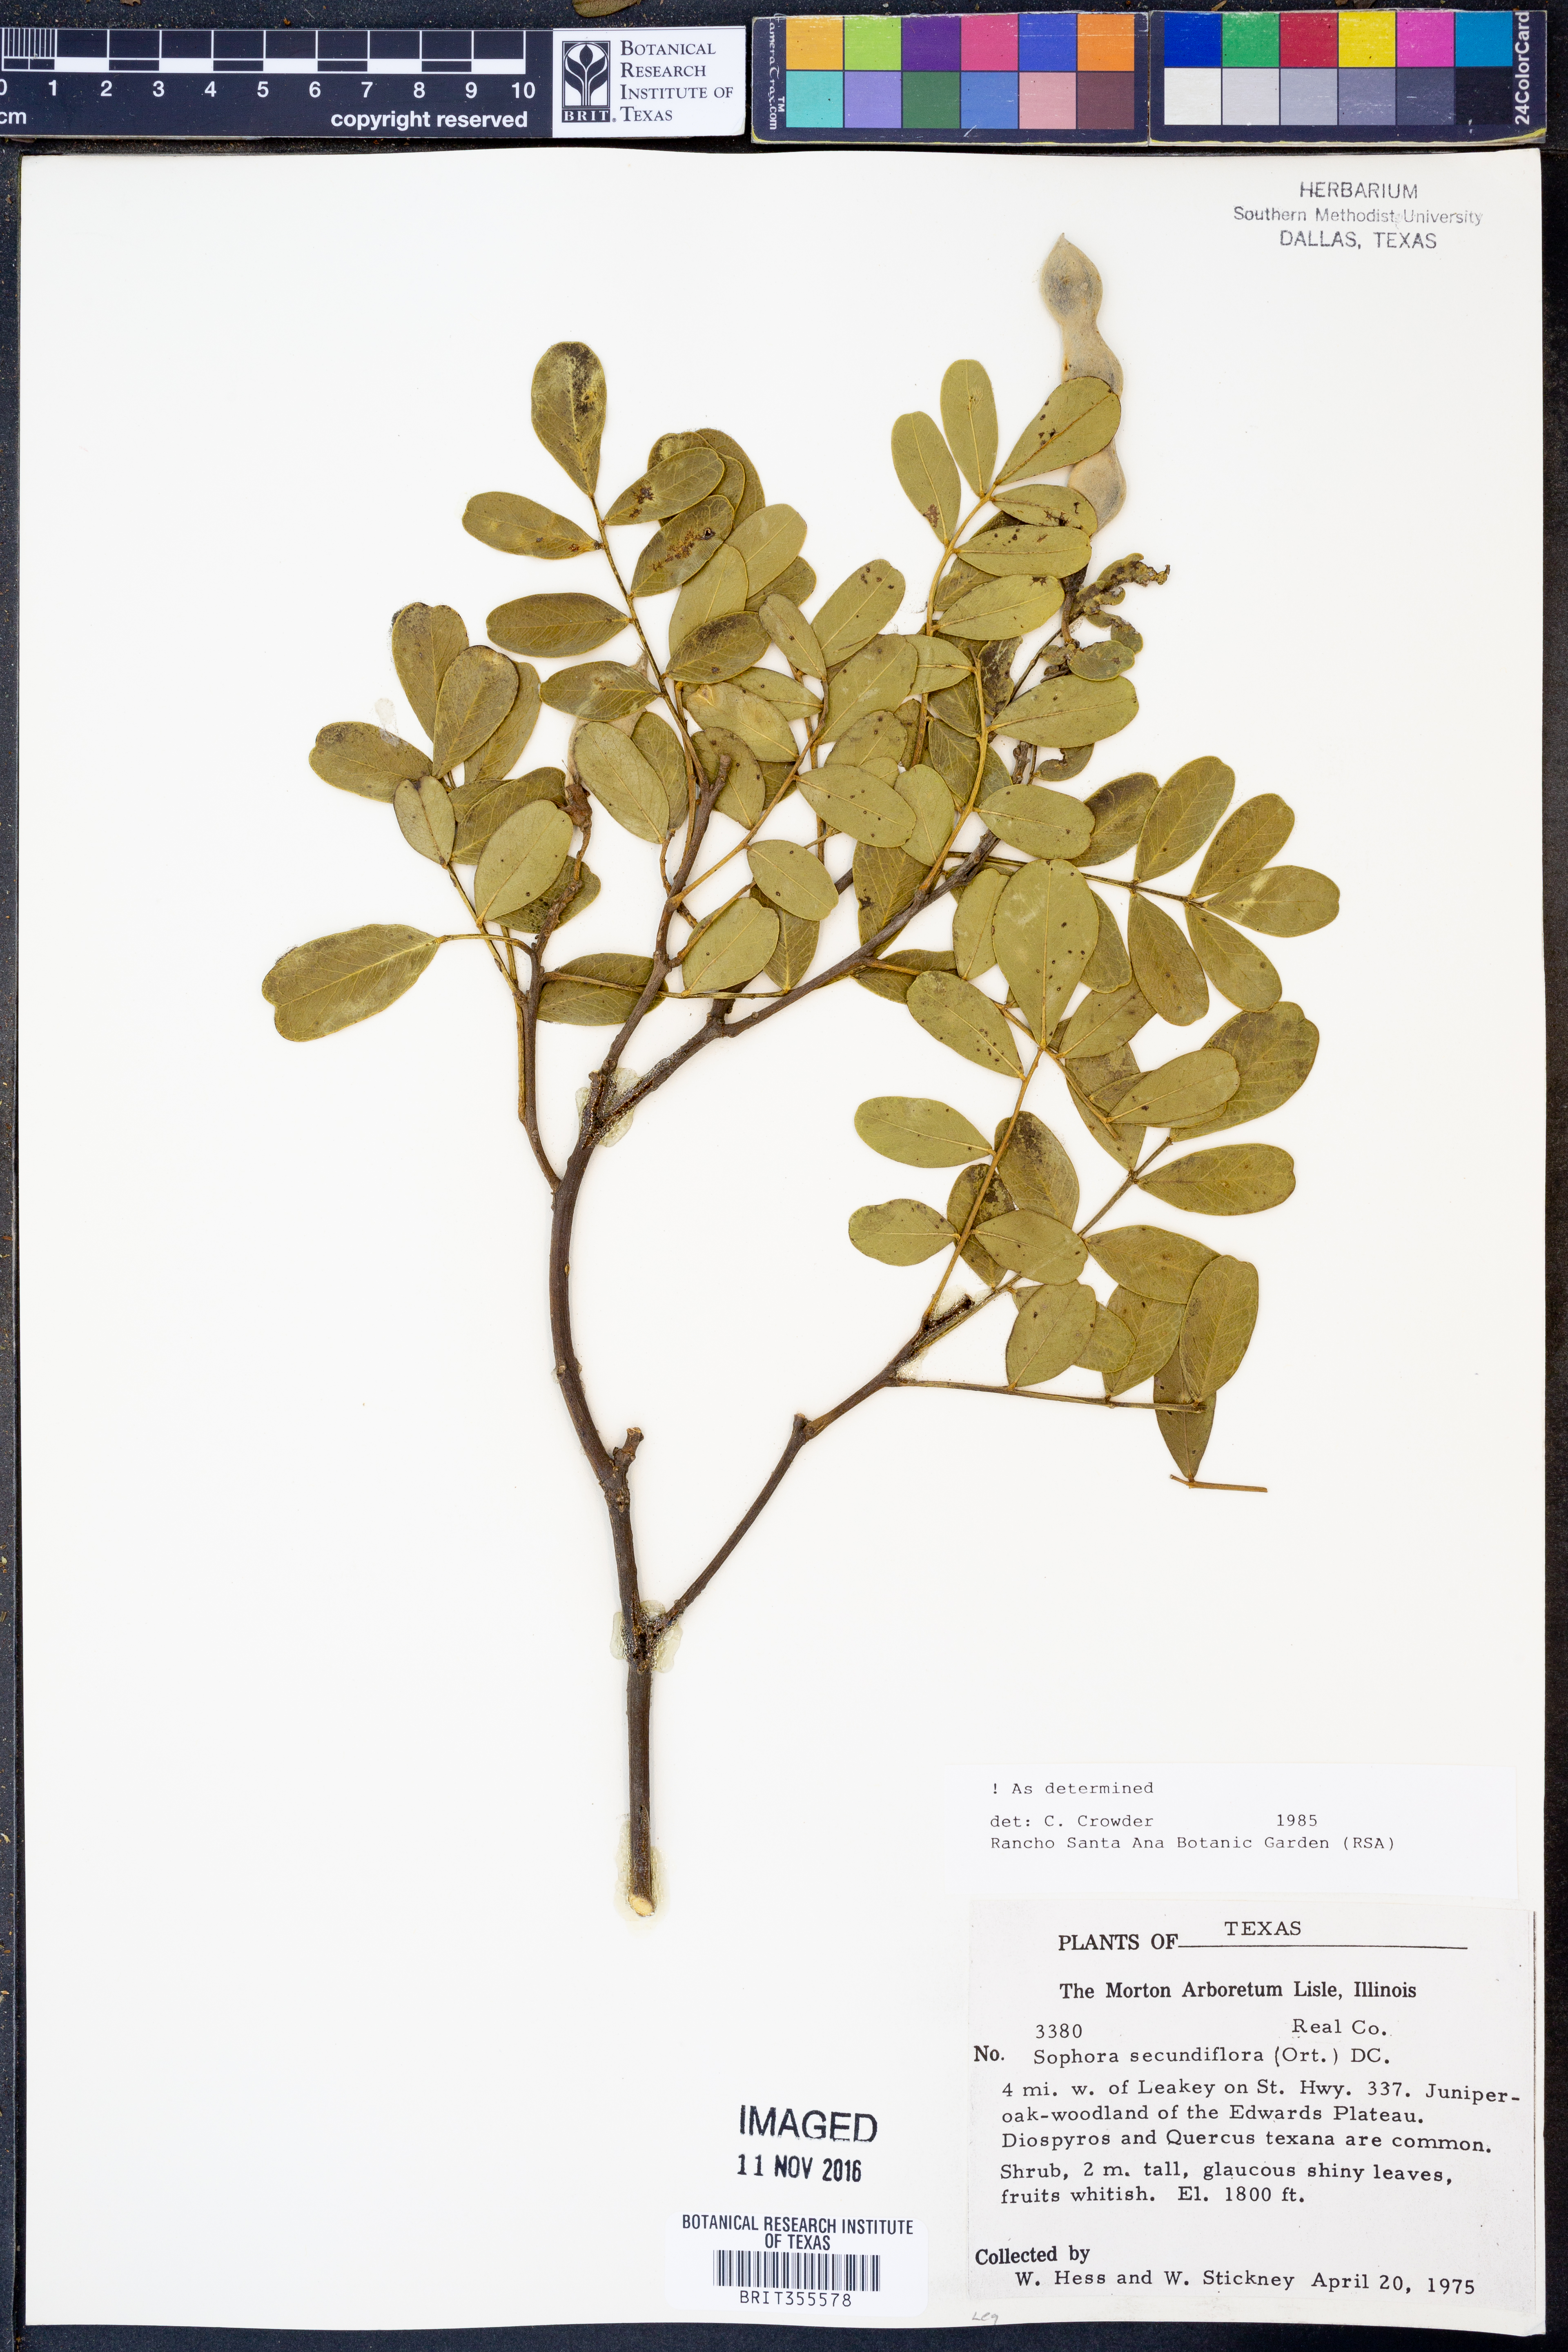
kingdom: Plantae
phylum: Tracheophyta
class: Magnoliopsida
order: Fabales
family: Fabaceae
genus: Dermatophyllum
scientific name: Dermatophyllum secundiflorum
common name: Texas-mountain-laurel
